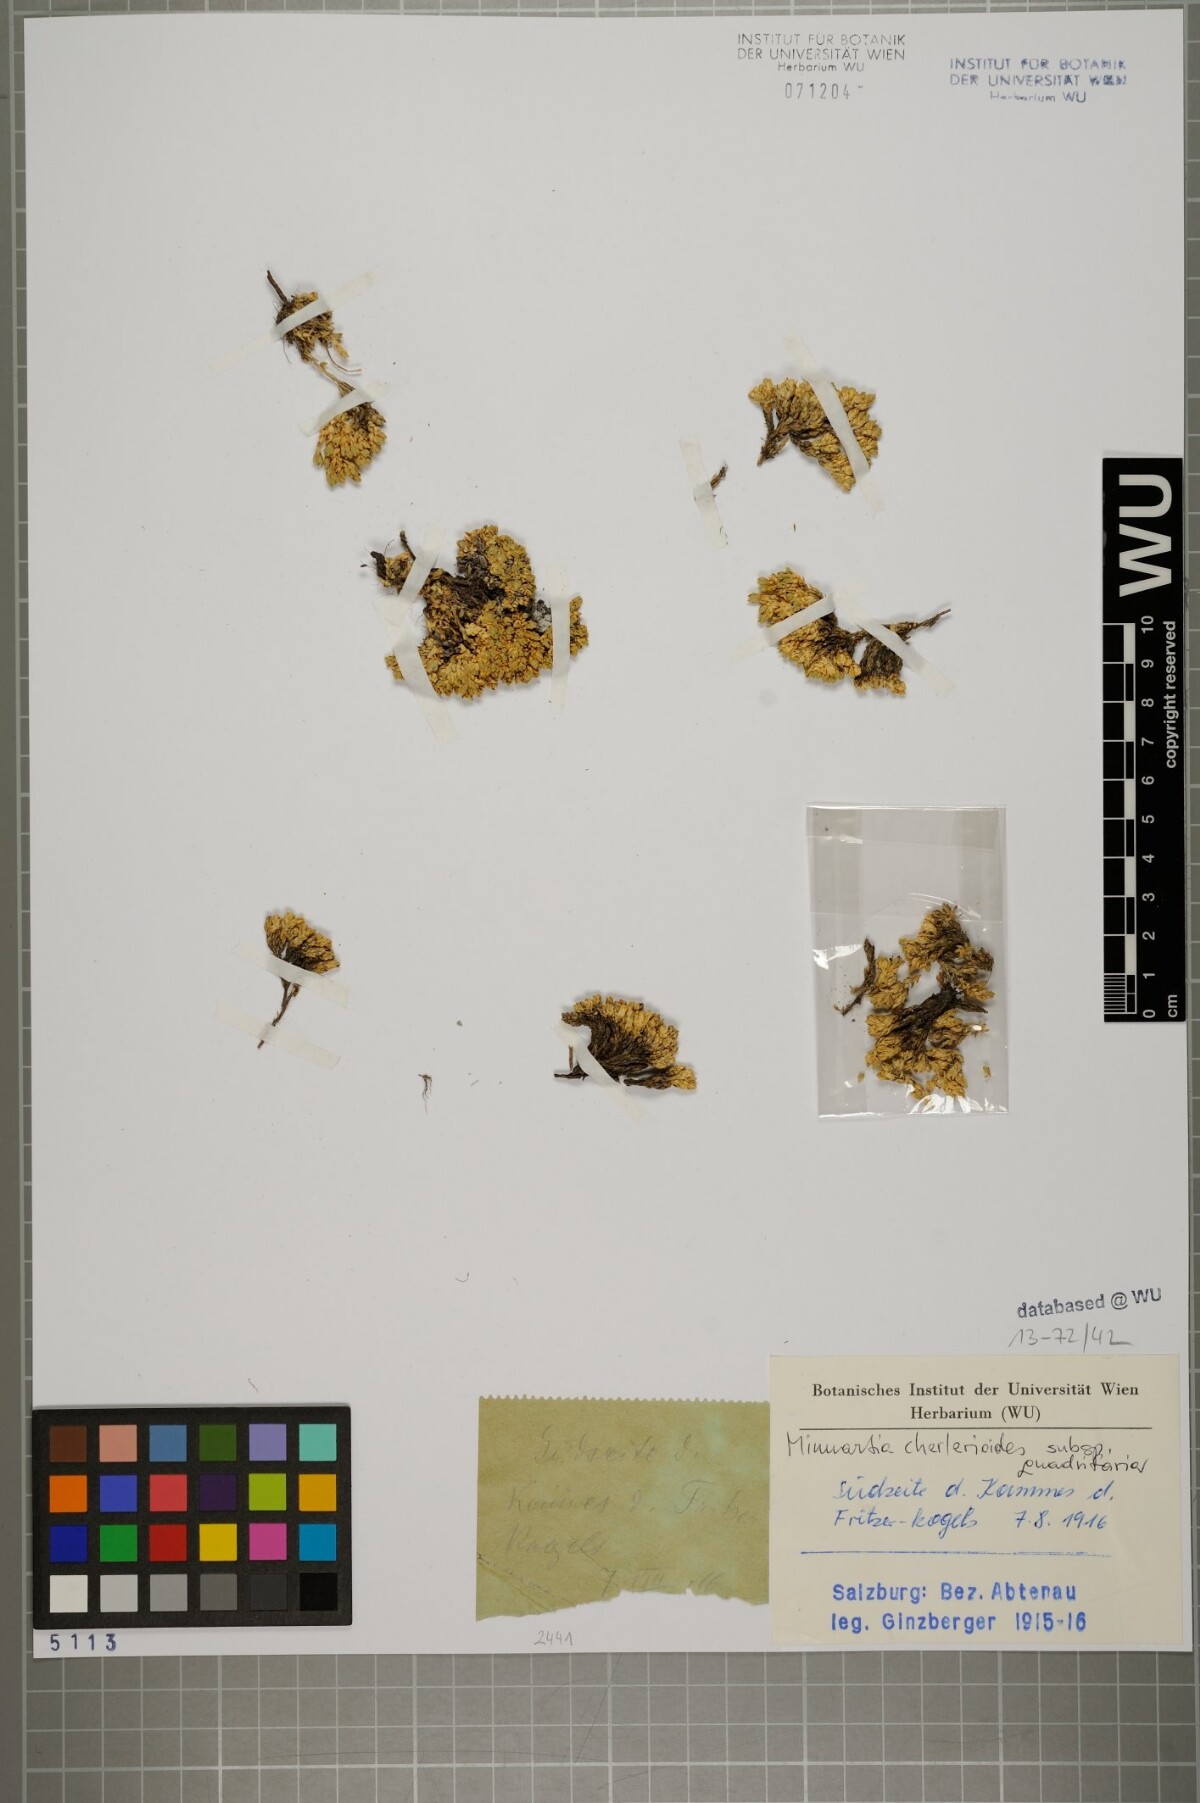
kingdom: Plantae
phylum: Tracheophyta
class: Magnoliopsida
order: Caryophyllales
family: Caryophyllaceae
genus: Facchinia
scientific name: Facchinia cherlerioides
